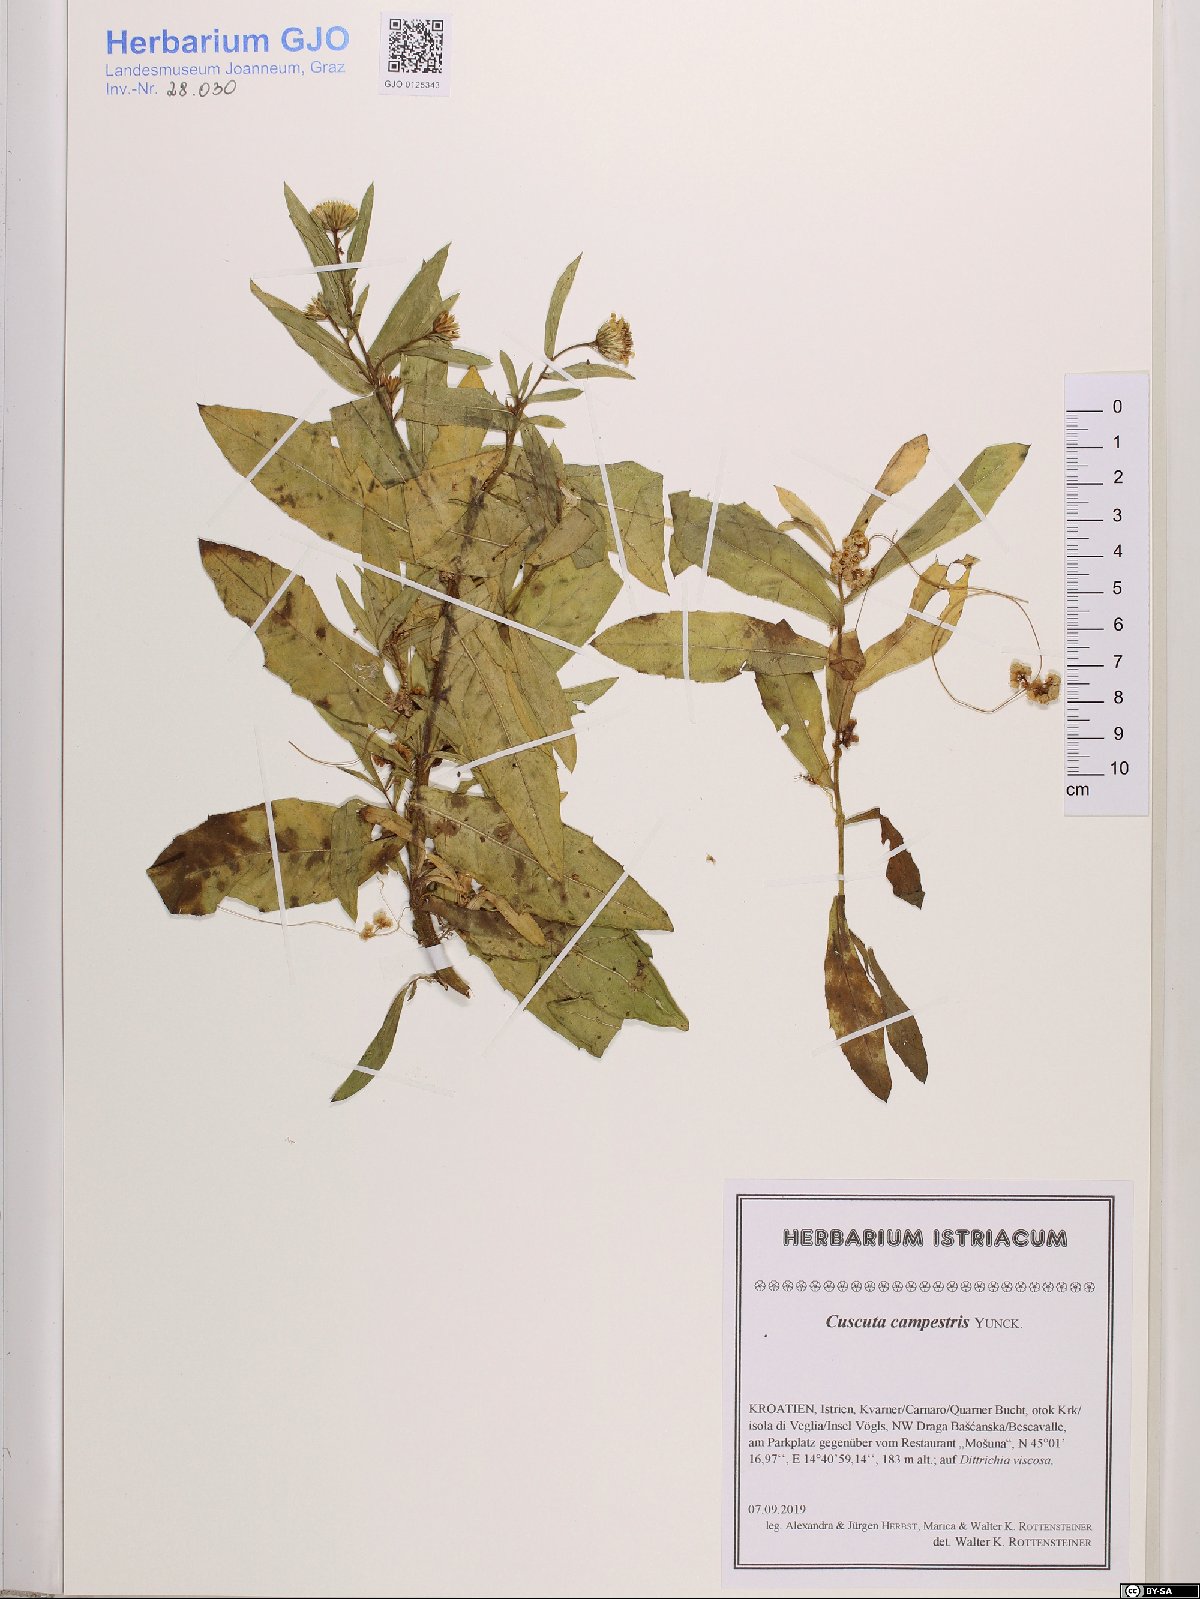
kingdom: Plantae
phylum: Tracheophyta
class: Magnoliopsida
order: Solanales
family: Convolvulaceae
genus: Cuscuta
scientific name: Cuscuta campestris
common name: Yellow dodder
